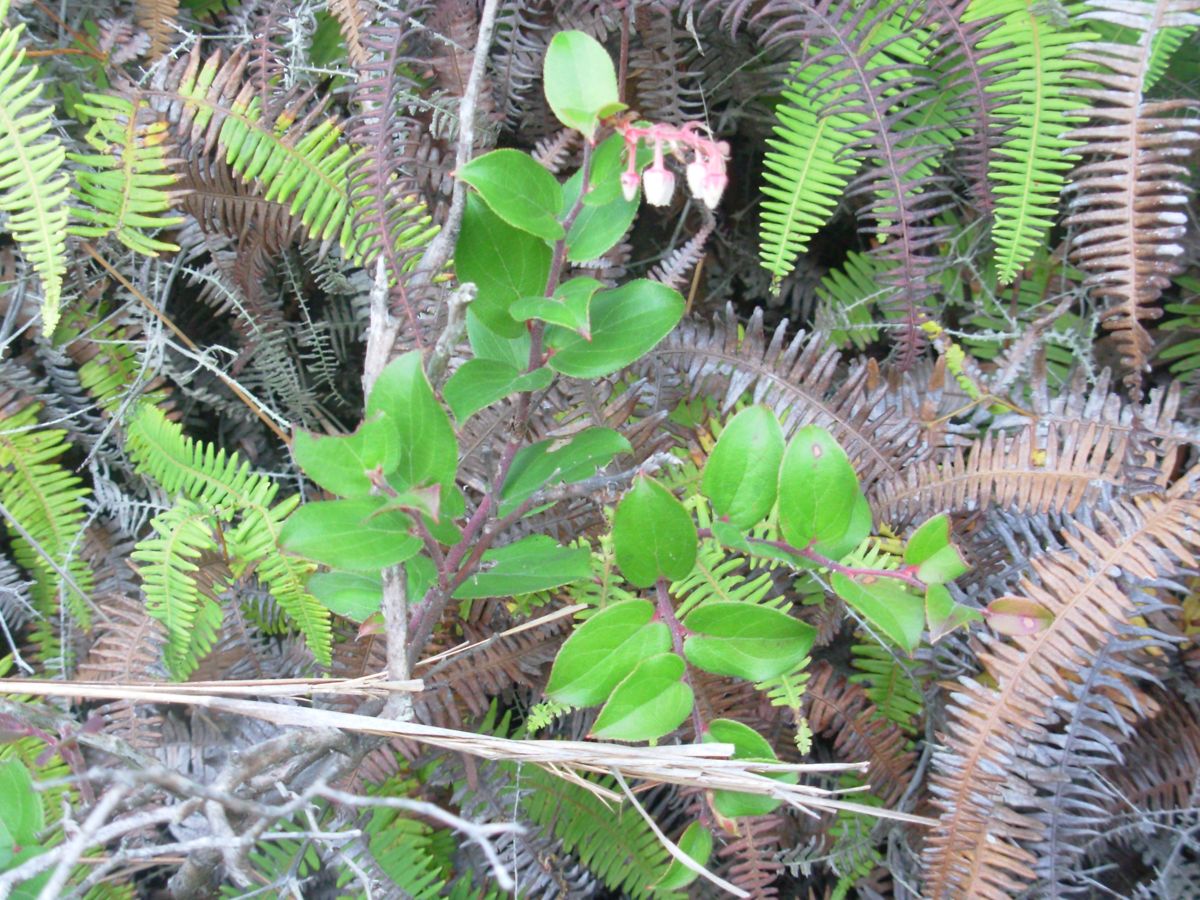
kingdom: Plantae
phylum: Tracheophyta
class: Magnoliopsida
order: Ericales
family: Ericaceae
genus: Gaultheria
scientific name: Gaultheria erecta
